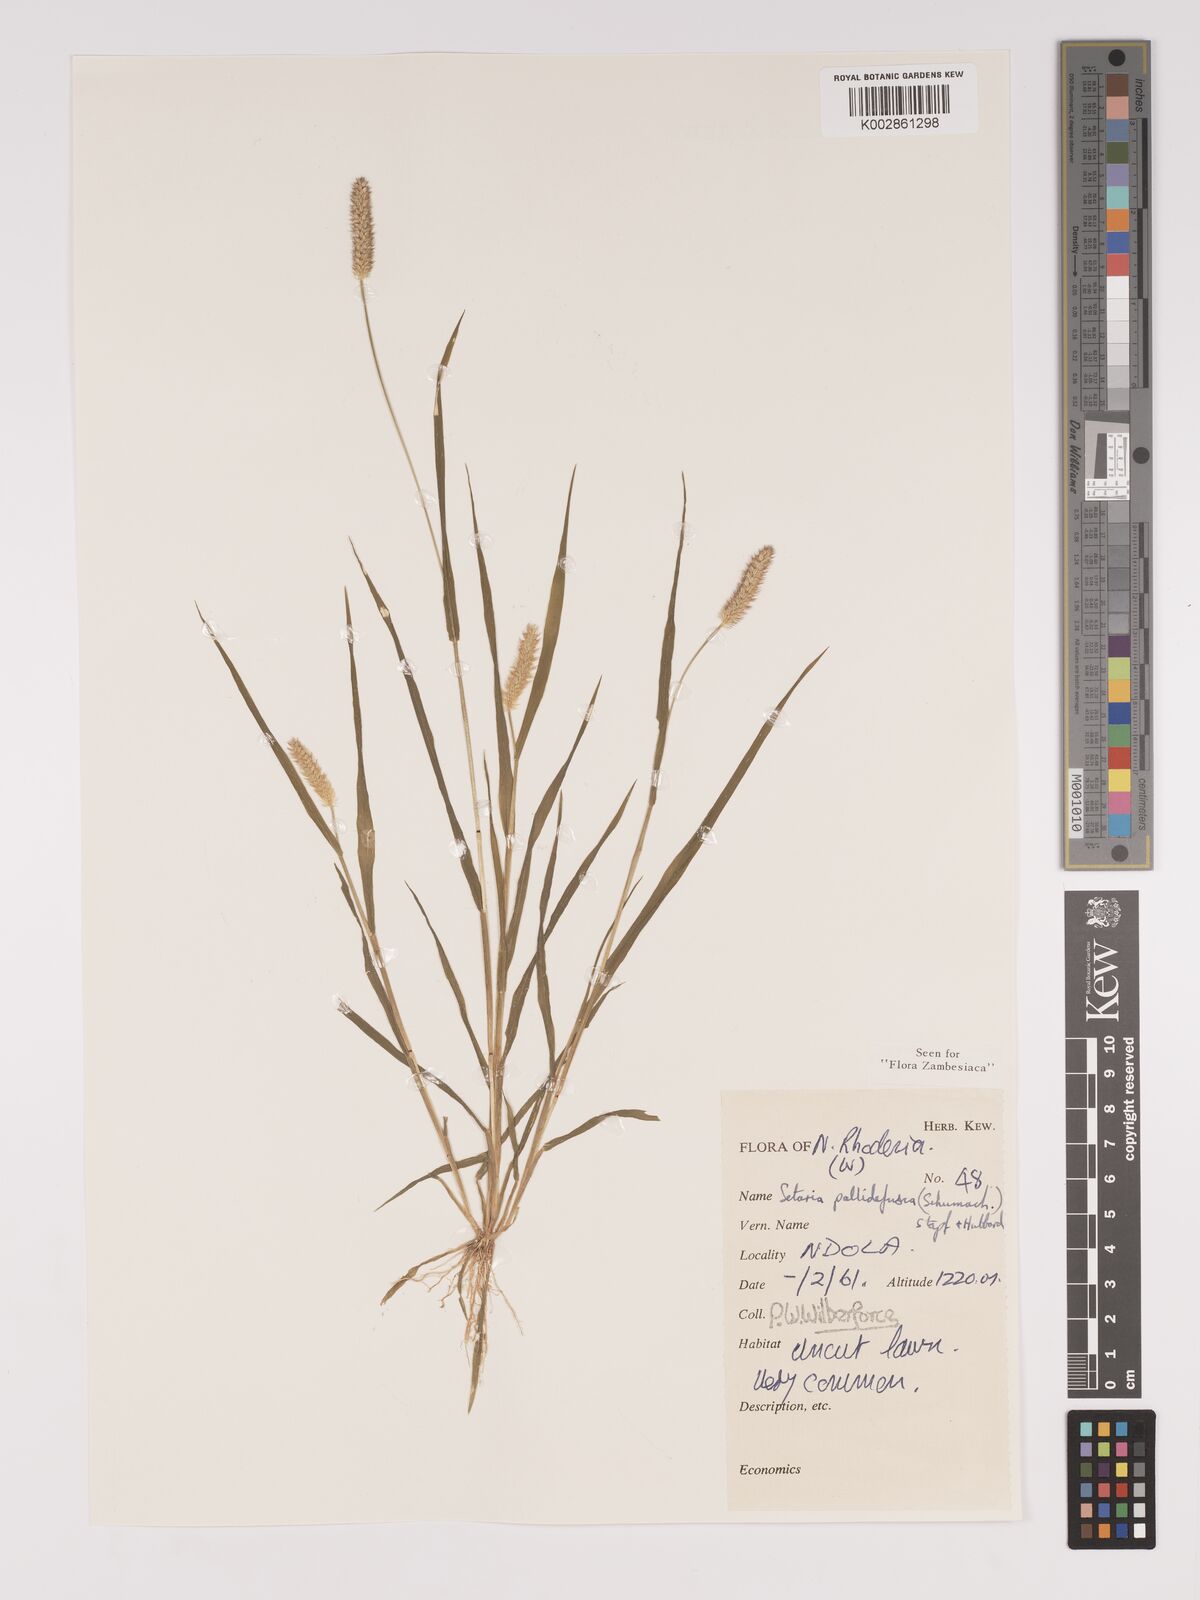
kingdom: Plantae
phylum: Tracheophyta
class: Liliopsida
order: Poales
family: Poaceae
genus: Setaria
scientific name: Setaria pumila
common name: Yellow bristle-grass
